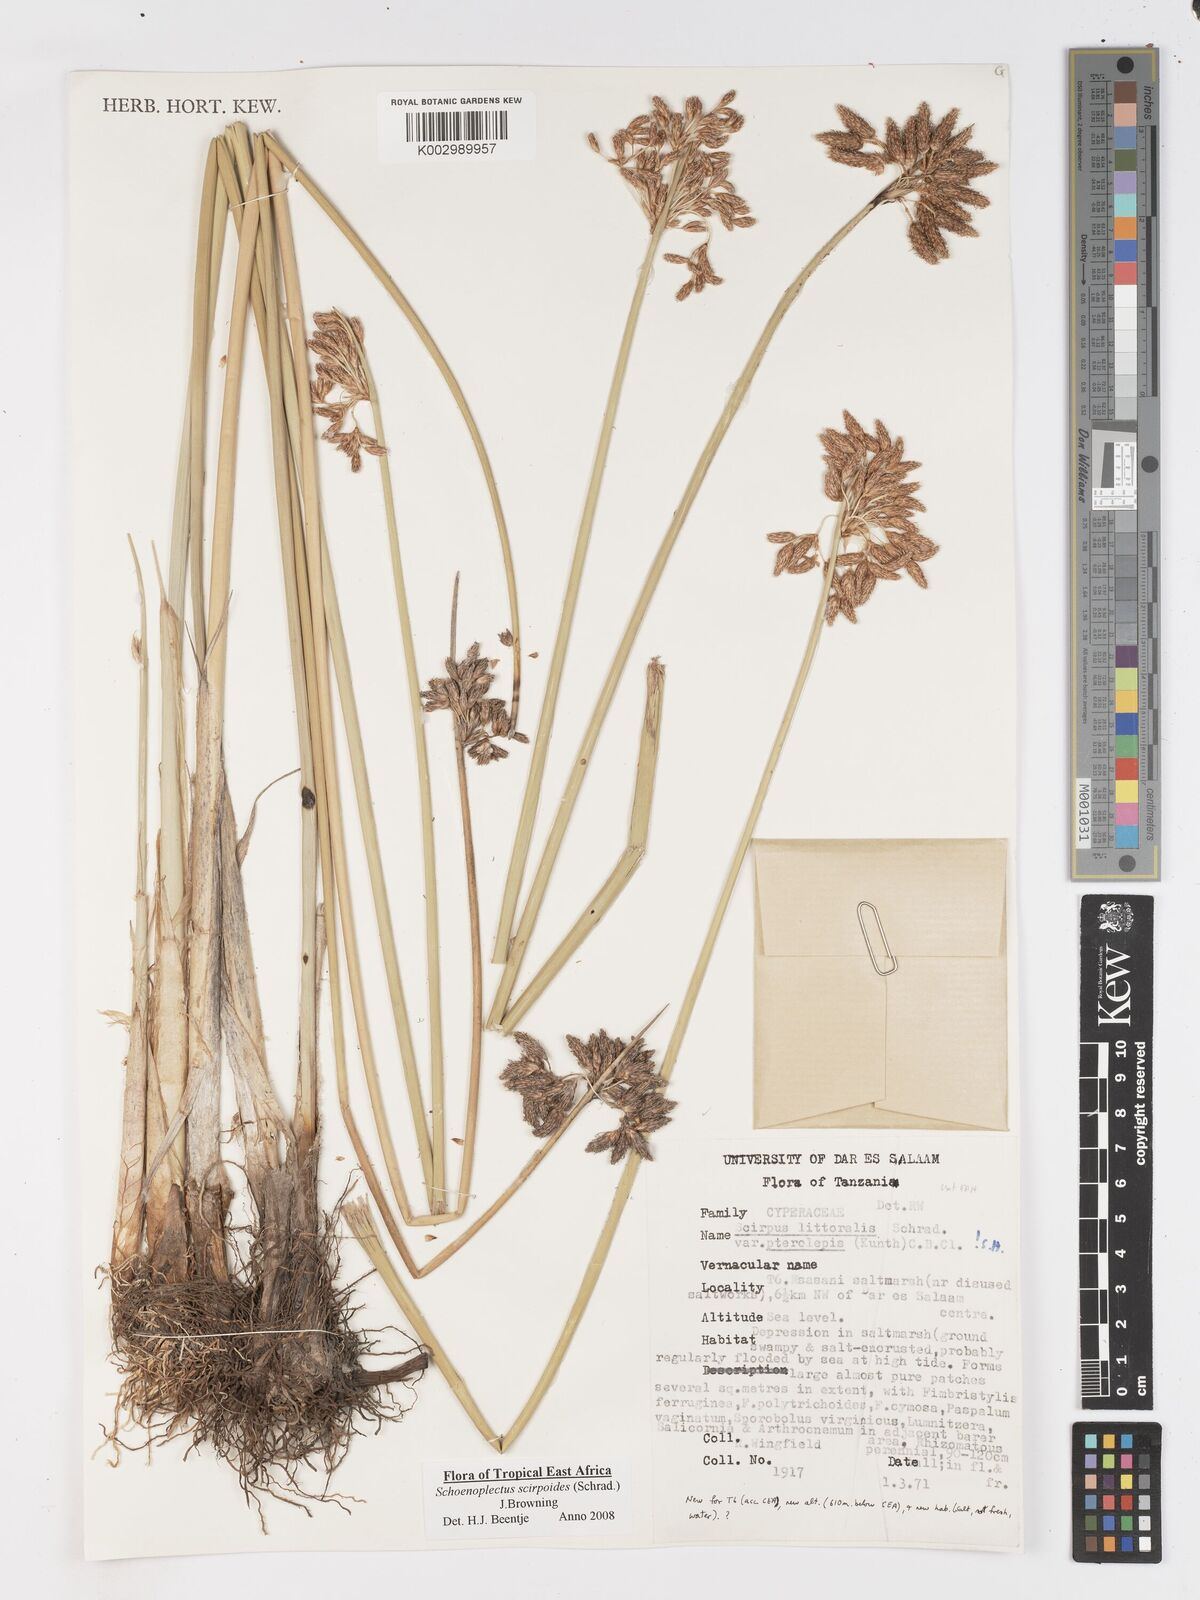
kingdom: Plantae
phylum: Tracheophyta
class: Liliopsida
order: Poales
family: Cyperaceae
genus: Schoenoplectus
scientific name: Schoenoplectus
